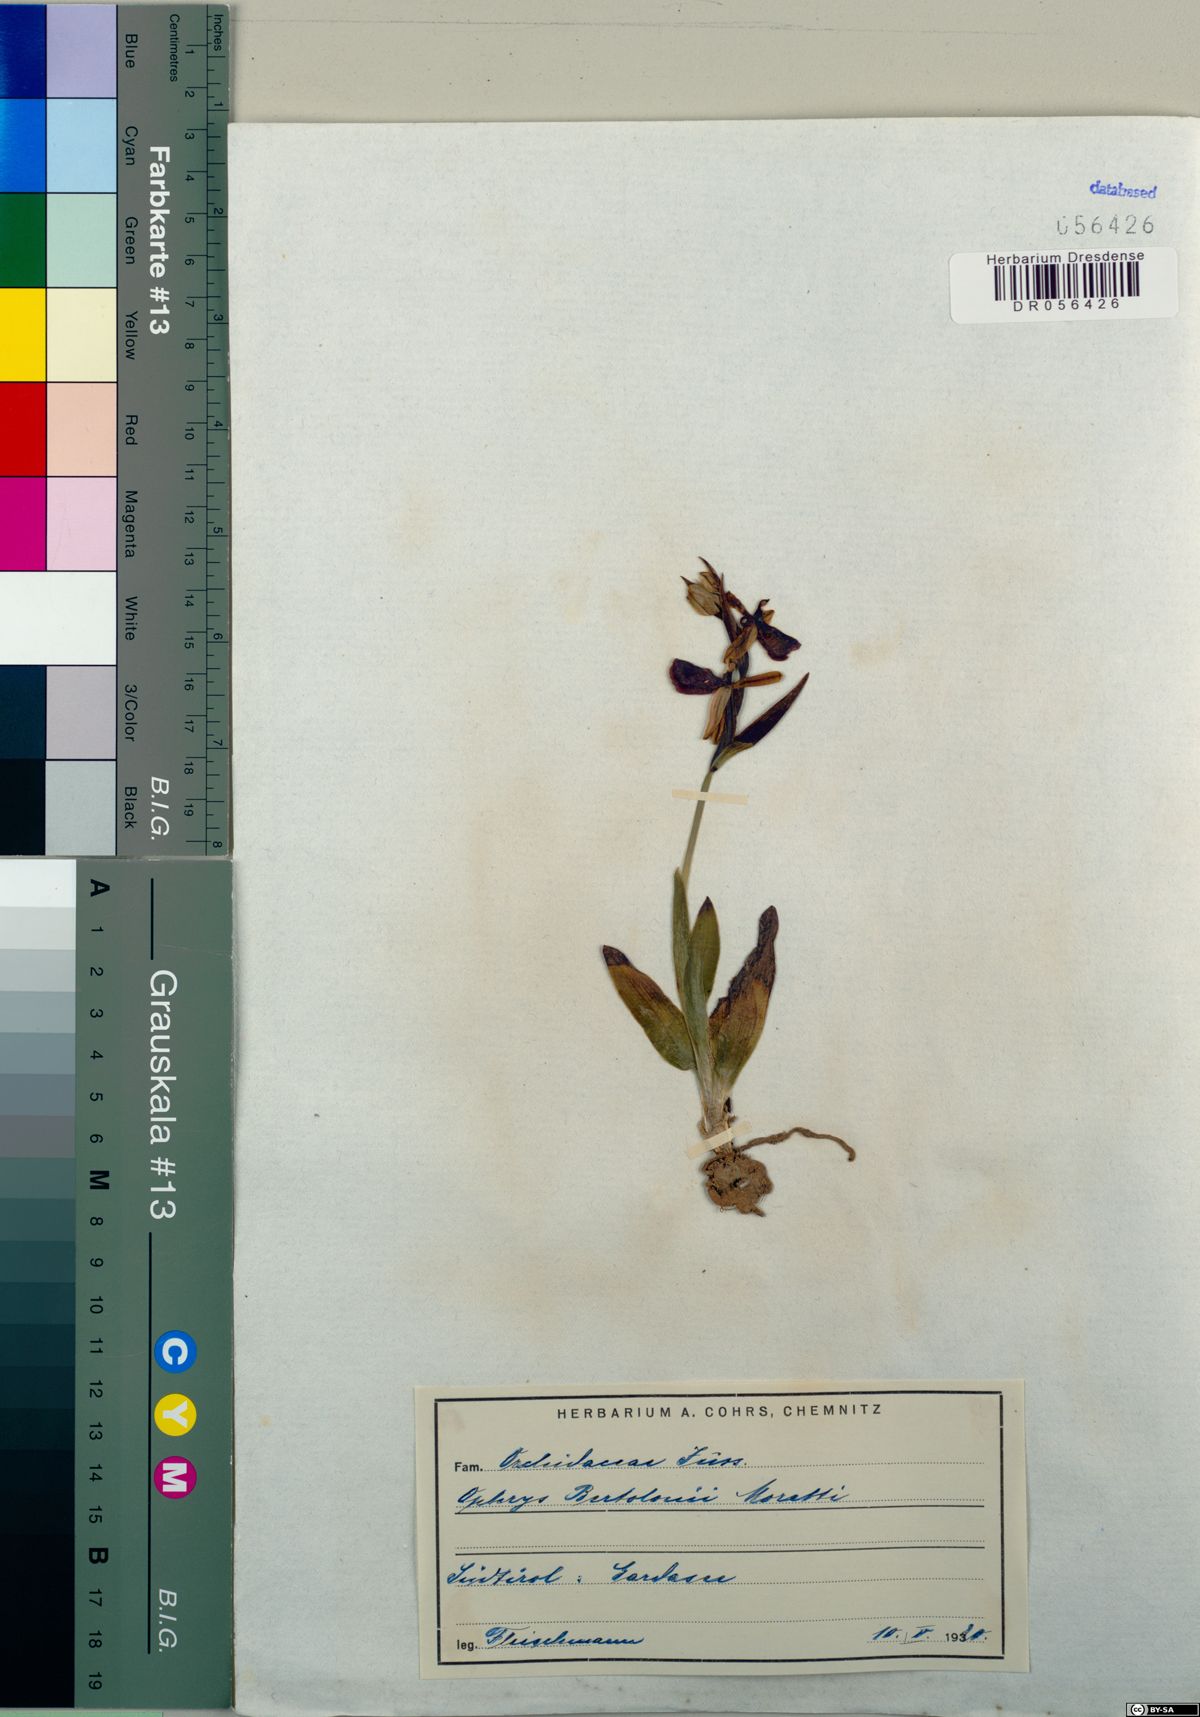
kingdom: Plantae
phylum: Tracheophyta
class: Liliopsida
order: Asparagales
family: Orchidaceae
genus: Ophrys
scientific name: Ophrys bertolonii
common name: Bertoloni's bee orchid
